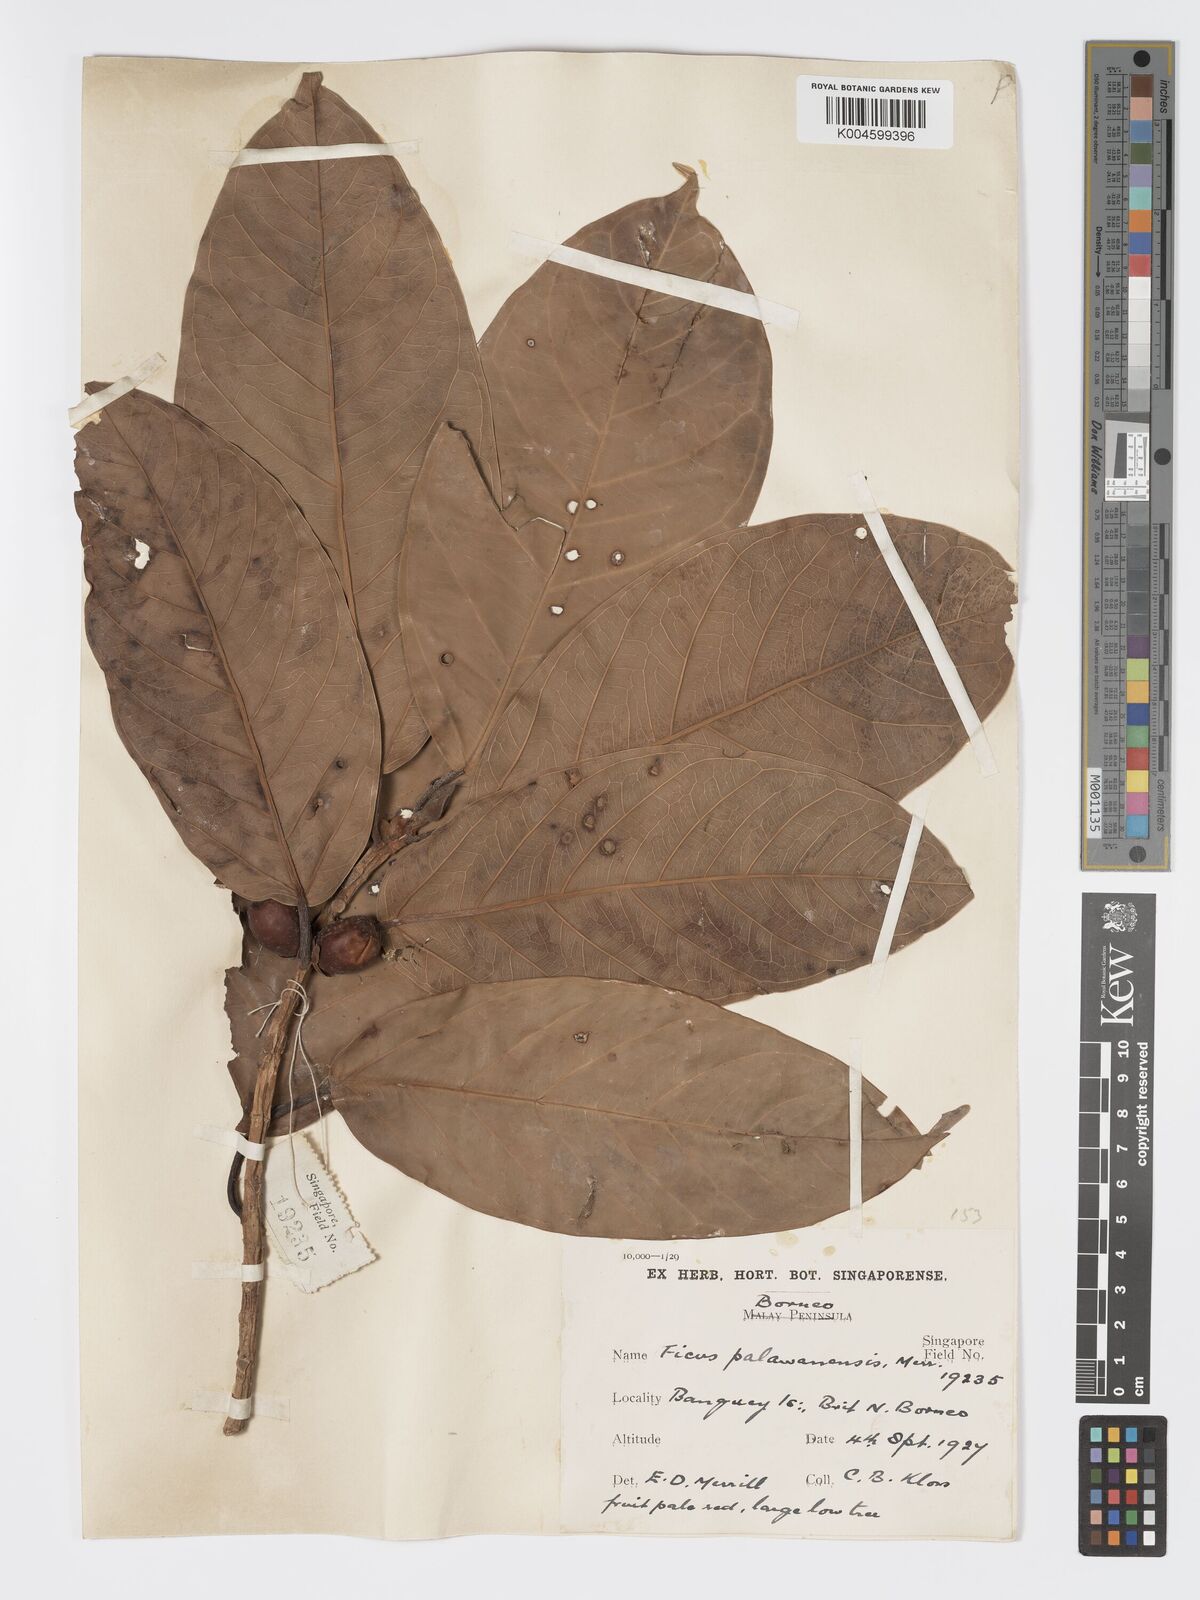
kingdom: Plantae
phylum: Tracheophyta
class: Magnoliopsida
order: Rosales
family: Moraceae
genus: Ficus
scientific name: Ficus forstenii
